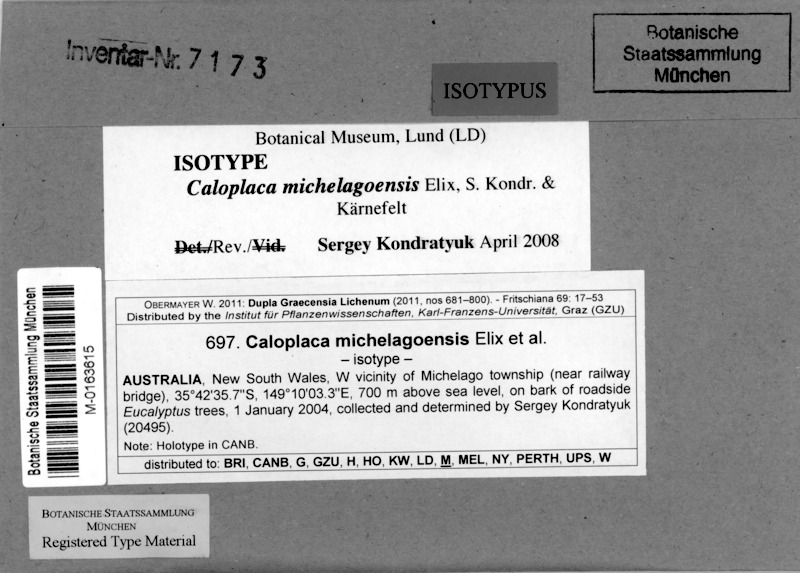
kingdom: Fungi
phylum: Ascomycota
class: Lecanoromycetes
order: Teloschistales
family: Teloschistaceae
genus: Streimanniella
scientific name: Streimanniella michelagoensis
